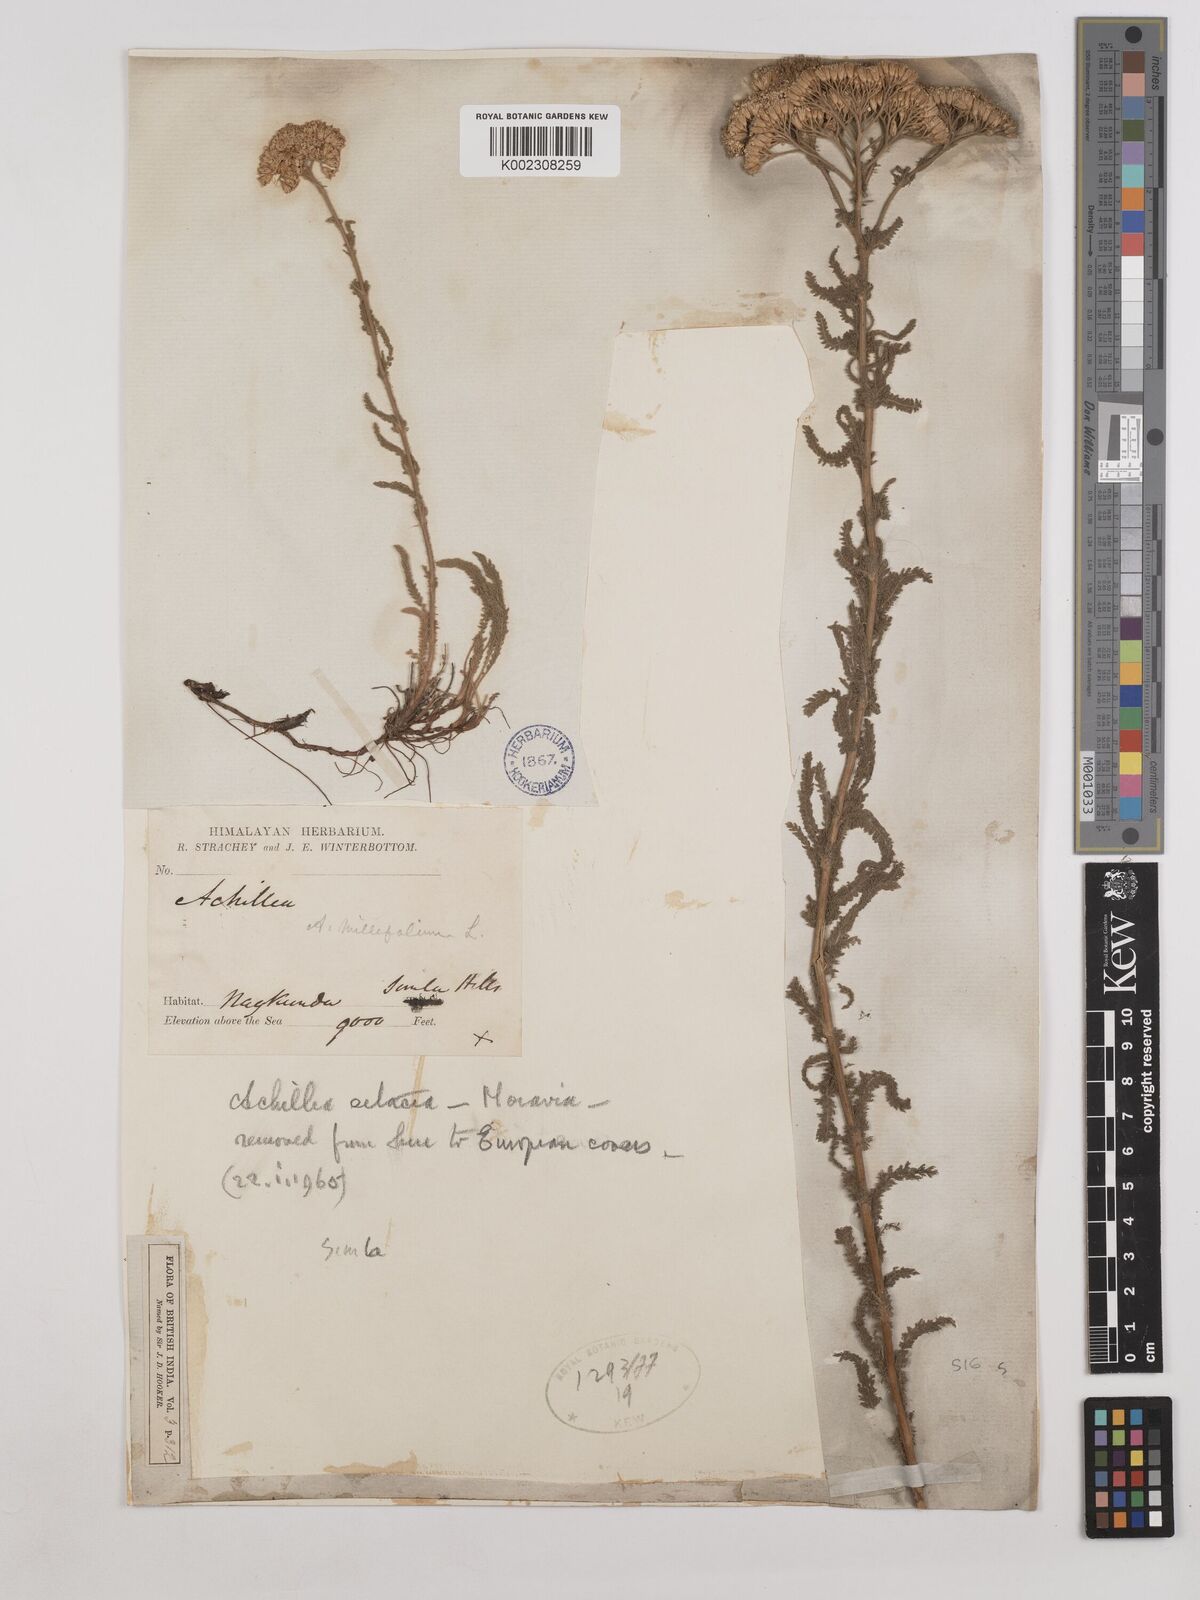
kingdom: Plantae
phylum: Tracheophyta
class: Magnoliopsida
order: Asterales
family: Asteraceae
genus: Achillea
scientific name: Achillea millefolium
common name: Yarrow
